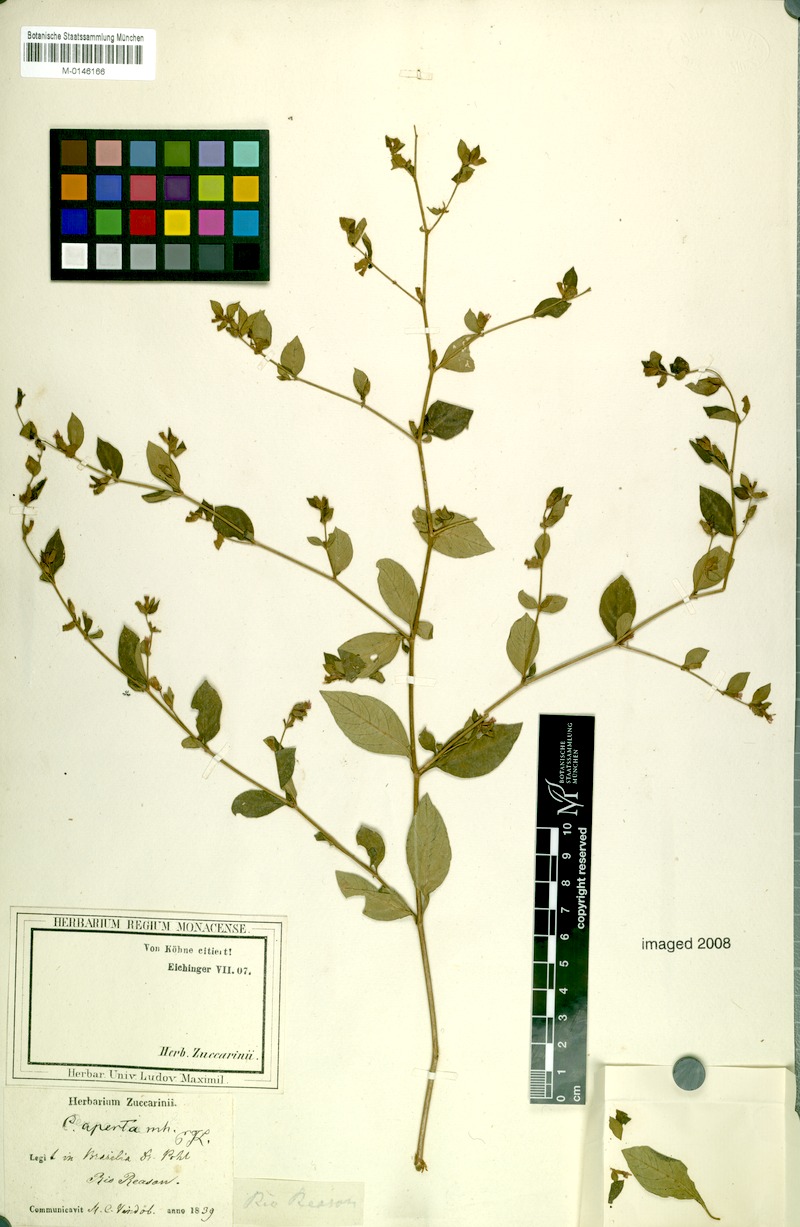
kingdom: Plantae
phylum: Tracheophyta
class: Magnoliopsida
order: Myrtales
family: Lythraceae
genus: Cuphea
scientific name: Cuphea aperta
